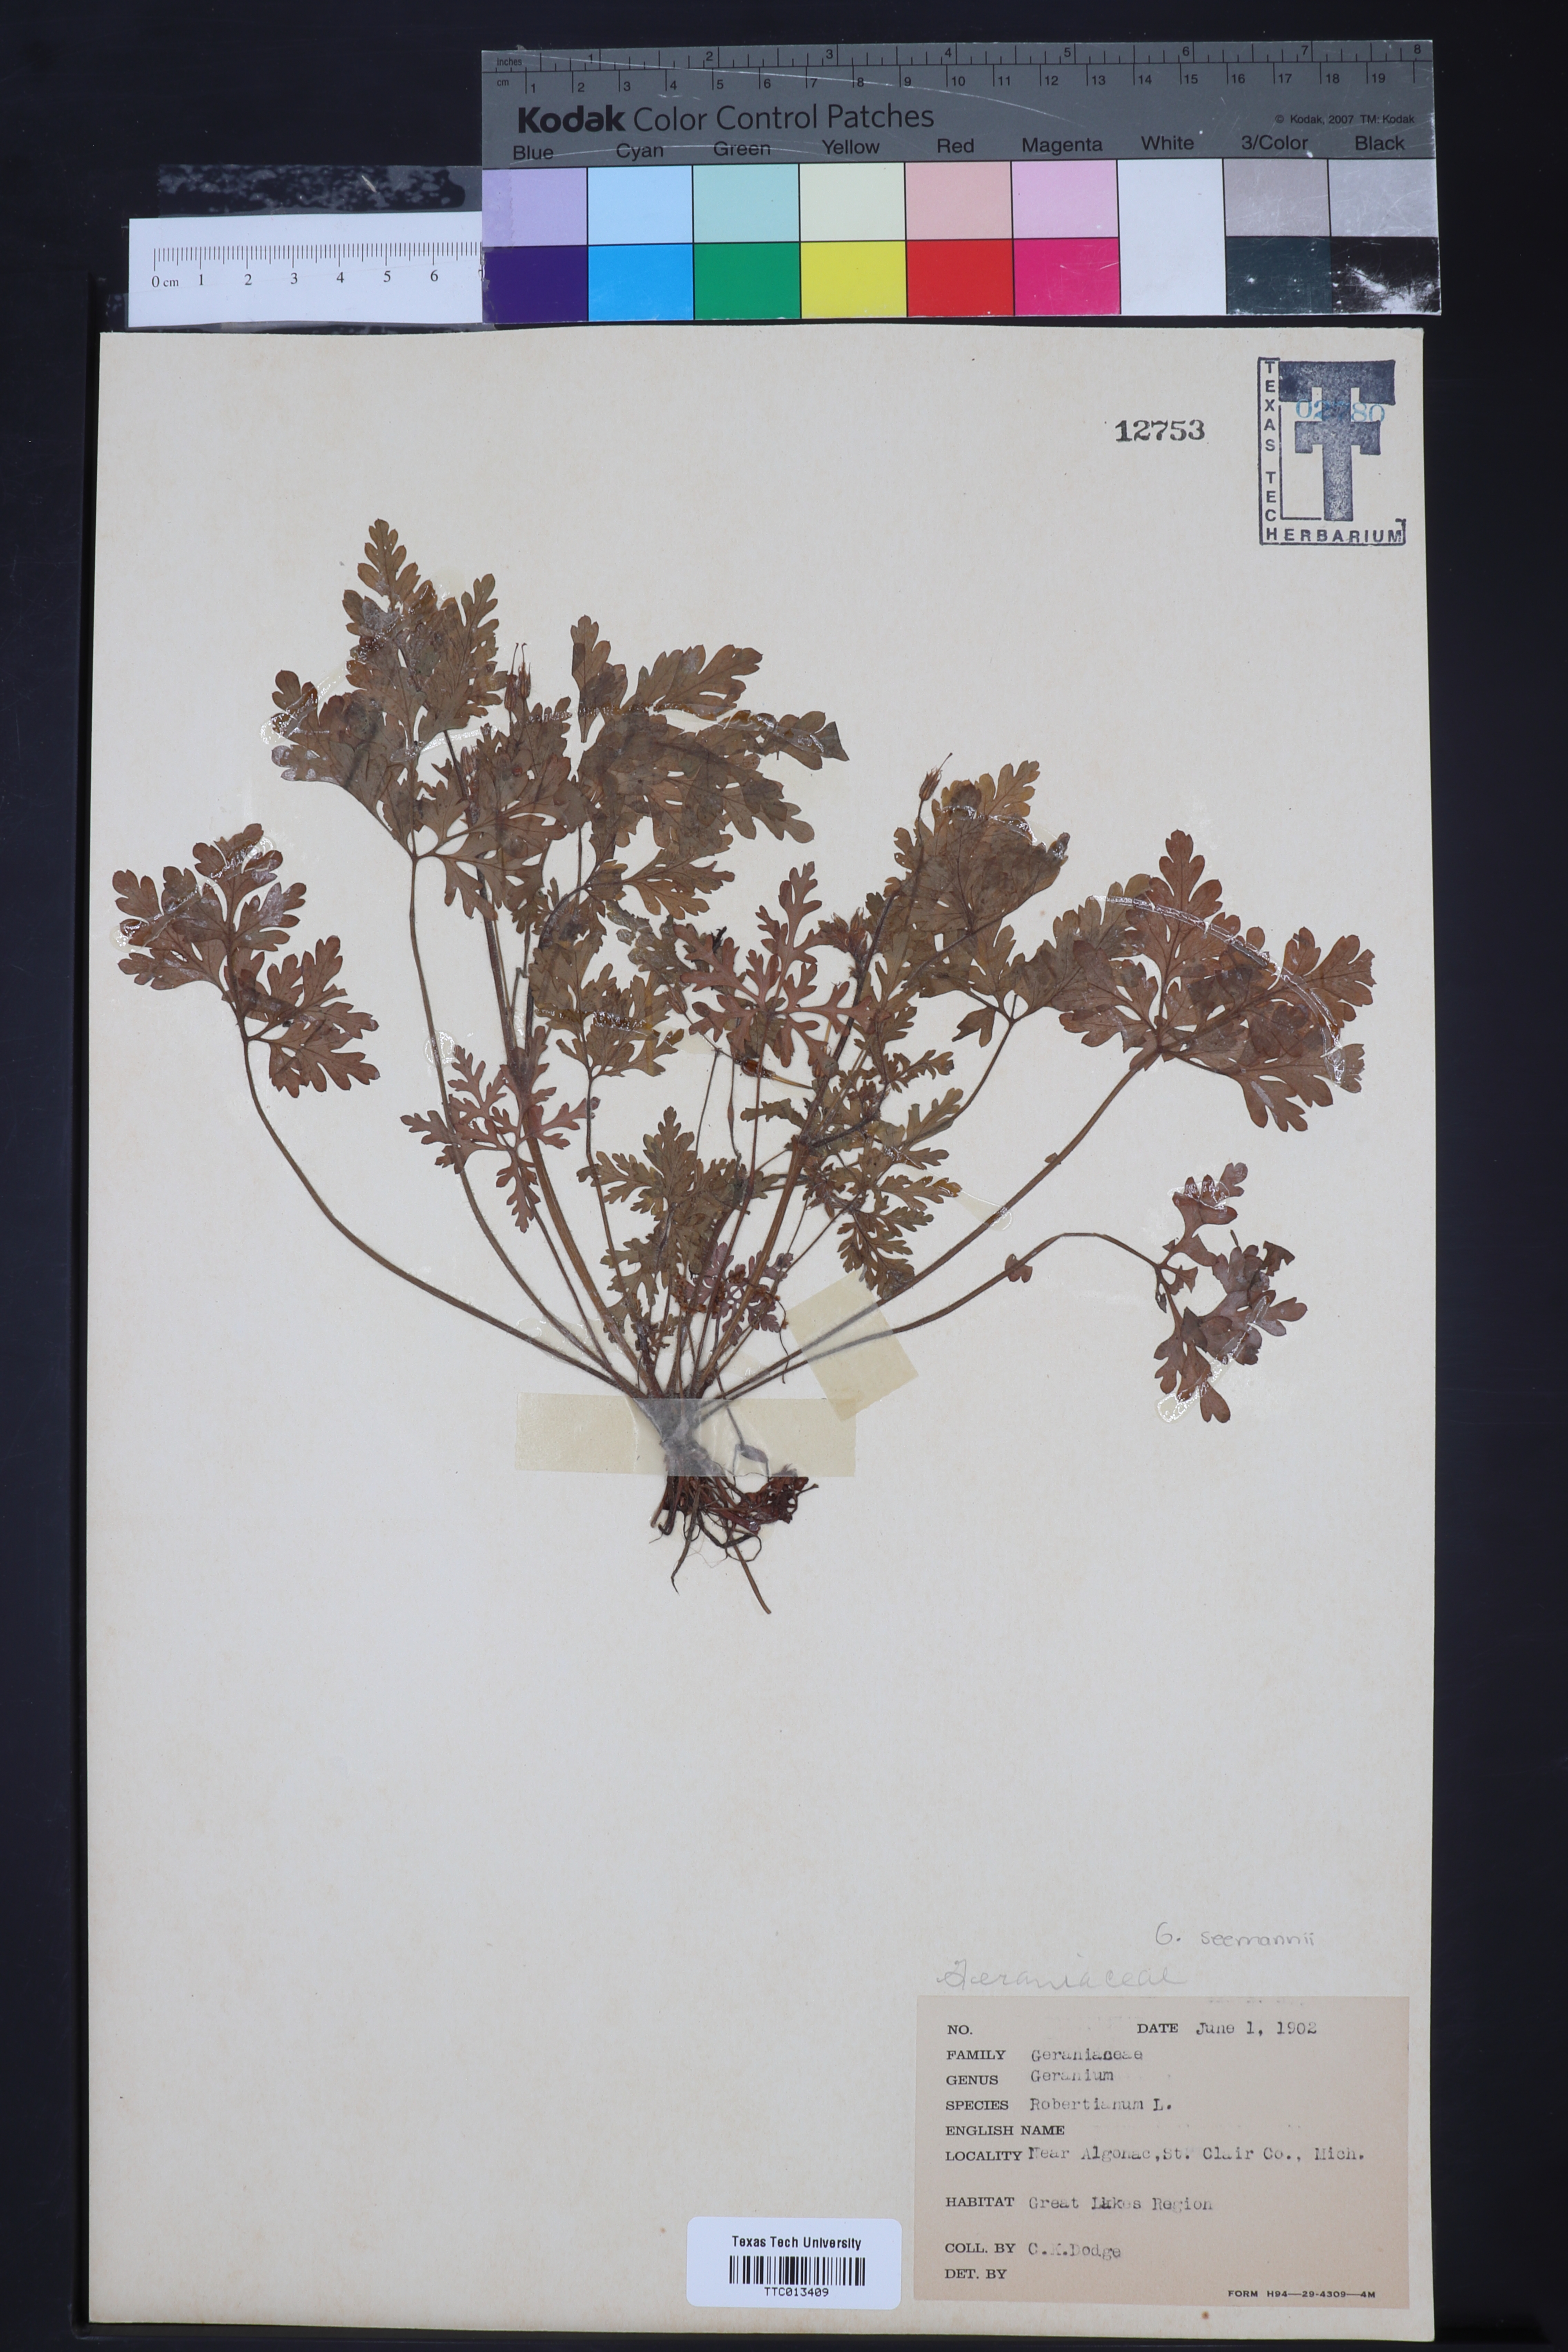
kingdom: Plantae
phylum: Tracheophyta
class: Magnoliopsida
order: Geraniales
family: Geraniaceae
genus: Geranium
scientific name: Geranium robertianum
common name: Herb-robert
